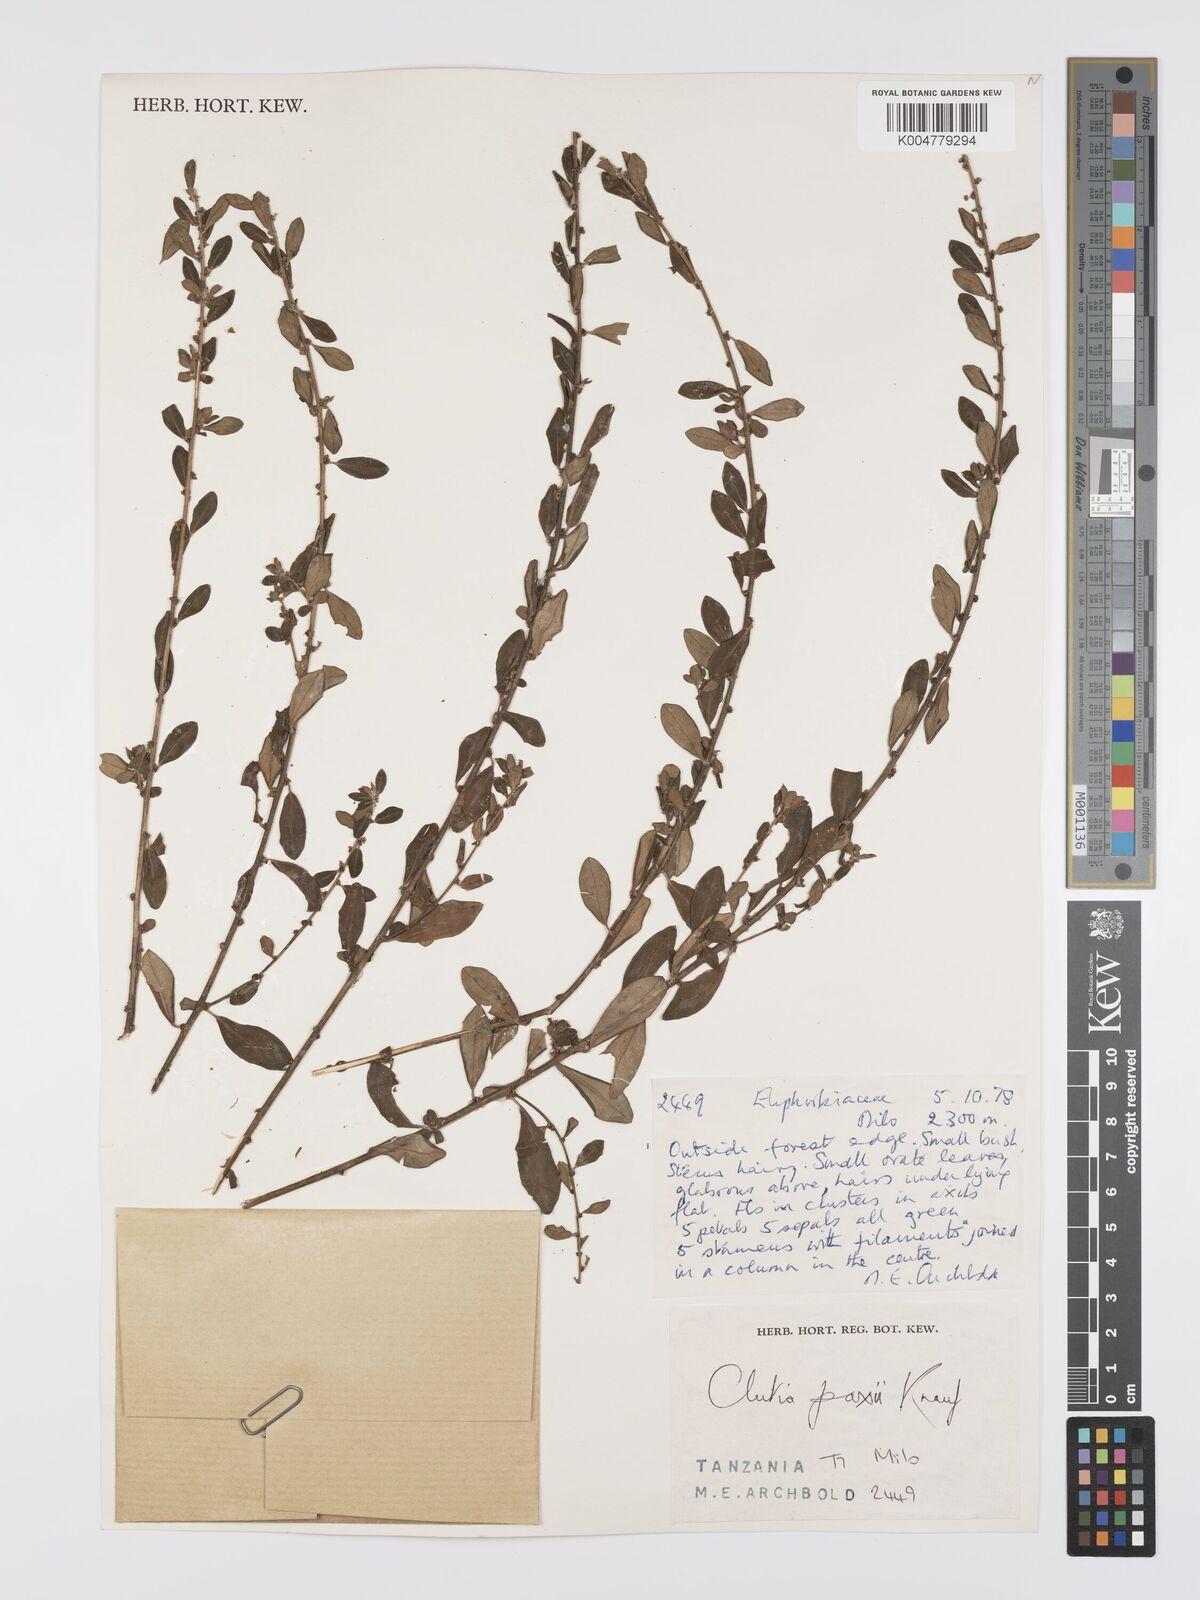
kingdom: Plantae
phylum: Tracheophyta
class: Magnoliopsida
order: Malpighiales
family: Peraceae
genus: Clutia
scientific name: Clutia paxii
